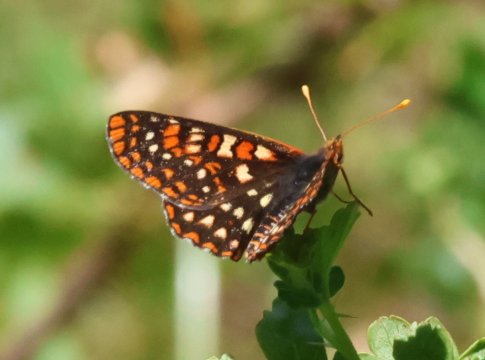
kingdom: Animalia
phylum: Arthropoda
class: Insecta
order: Lepidoptera
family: Nymphalidae
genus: Occidryas
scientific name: Occidryas editha
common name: Edith's Checkerspot
